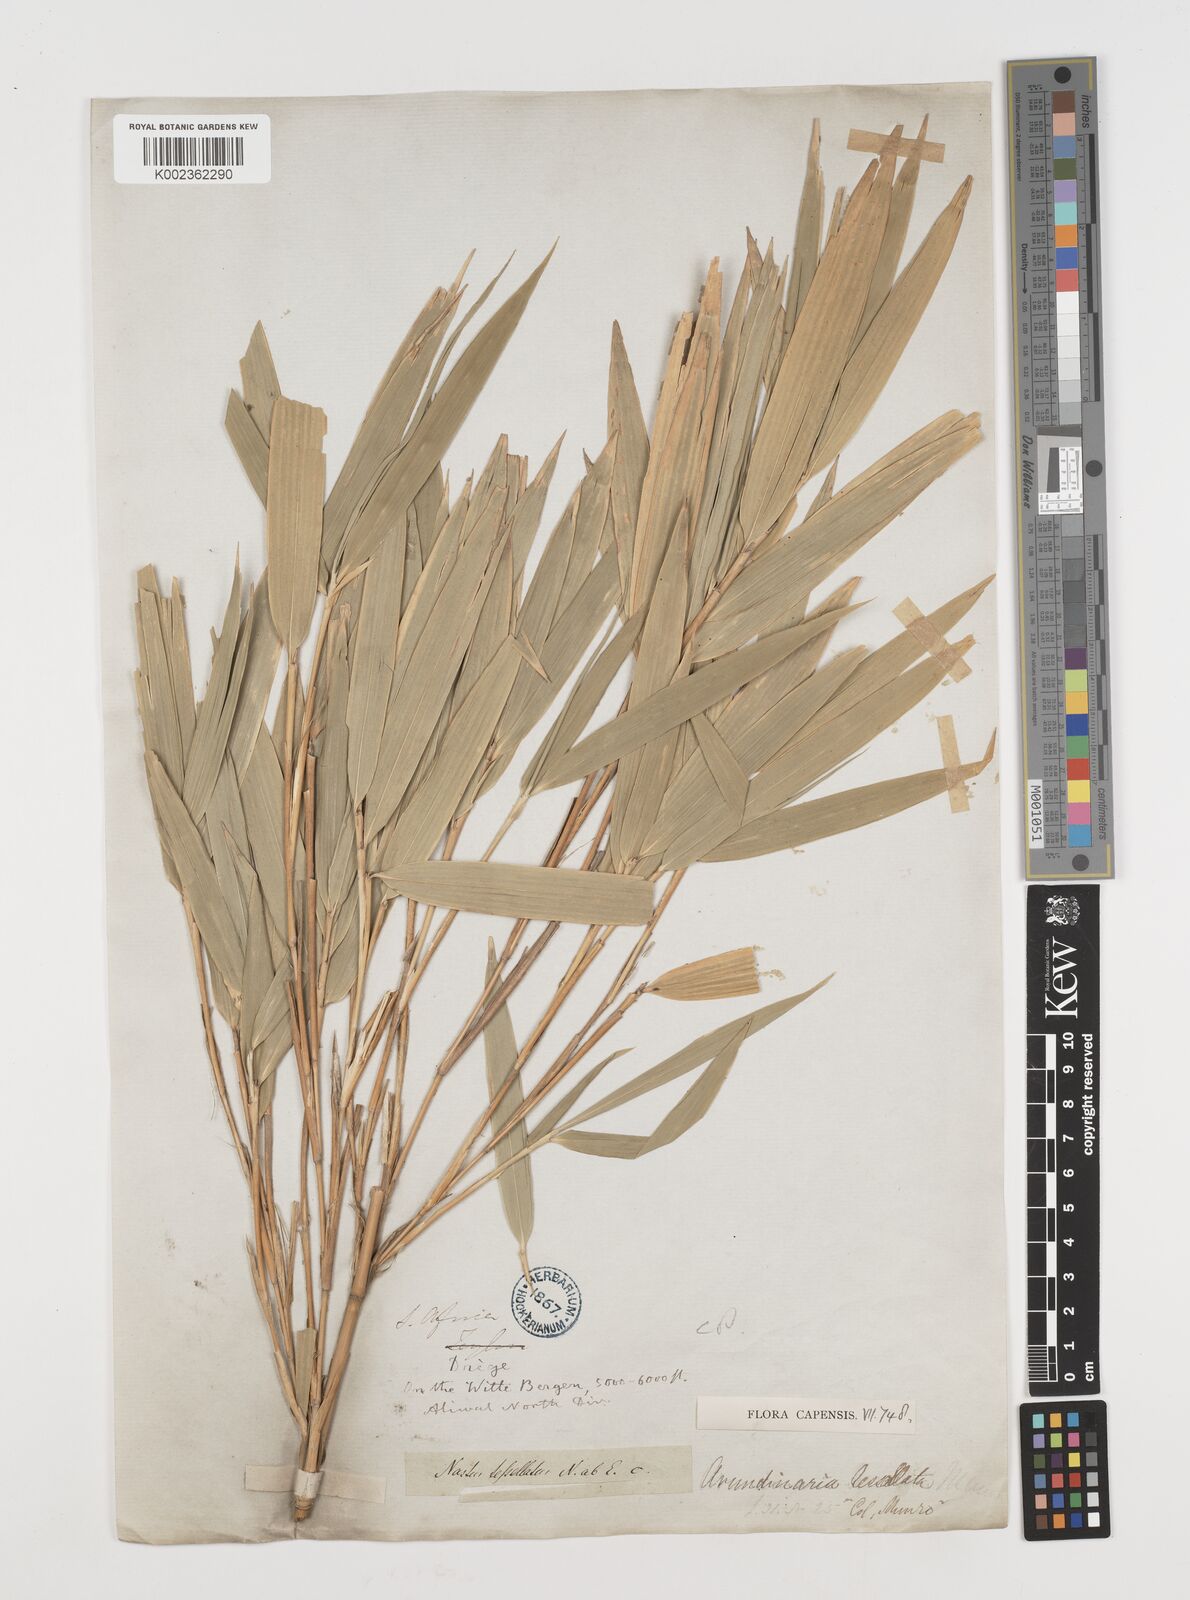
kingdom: Plantae
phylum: Tracheophyta
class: Liliopsida
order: Poales
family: Poaceae
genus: Bergbambos
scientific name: Bergbambos tessellata
